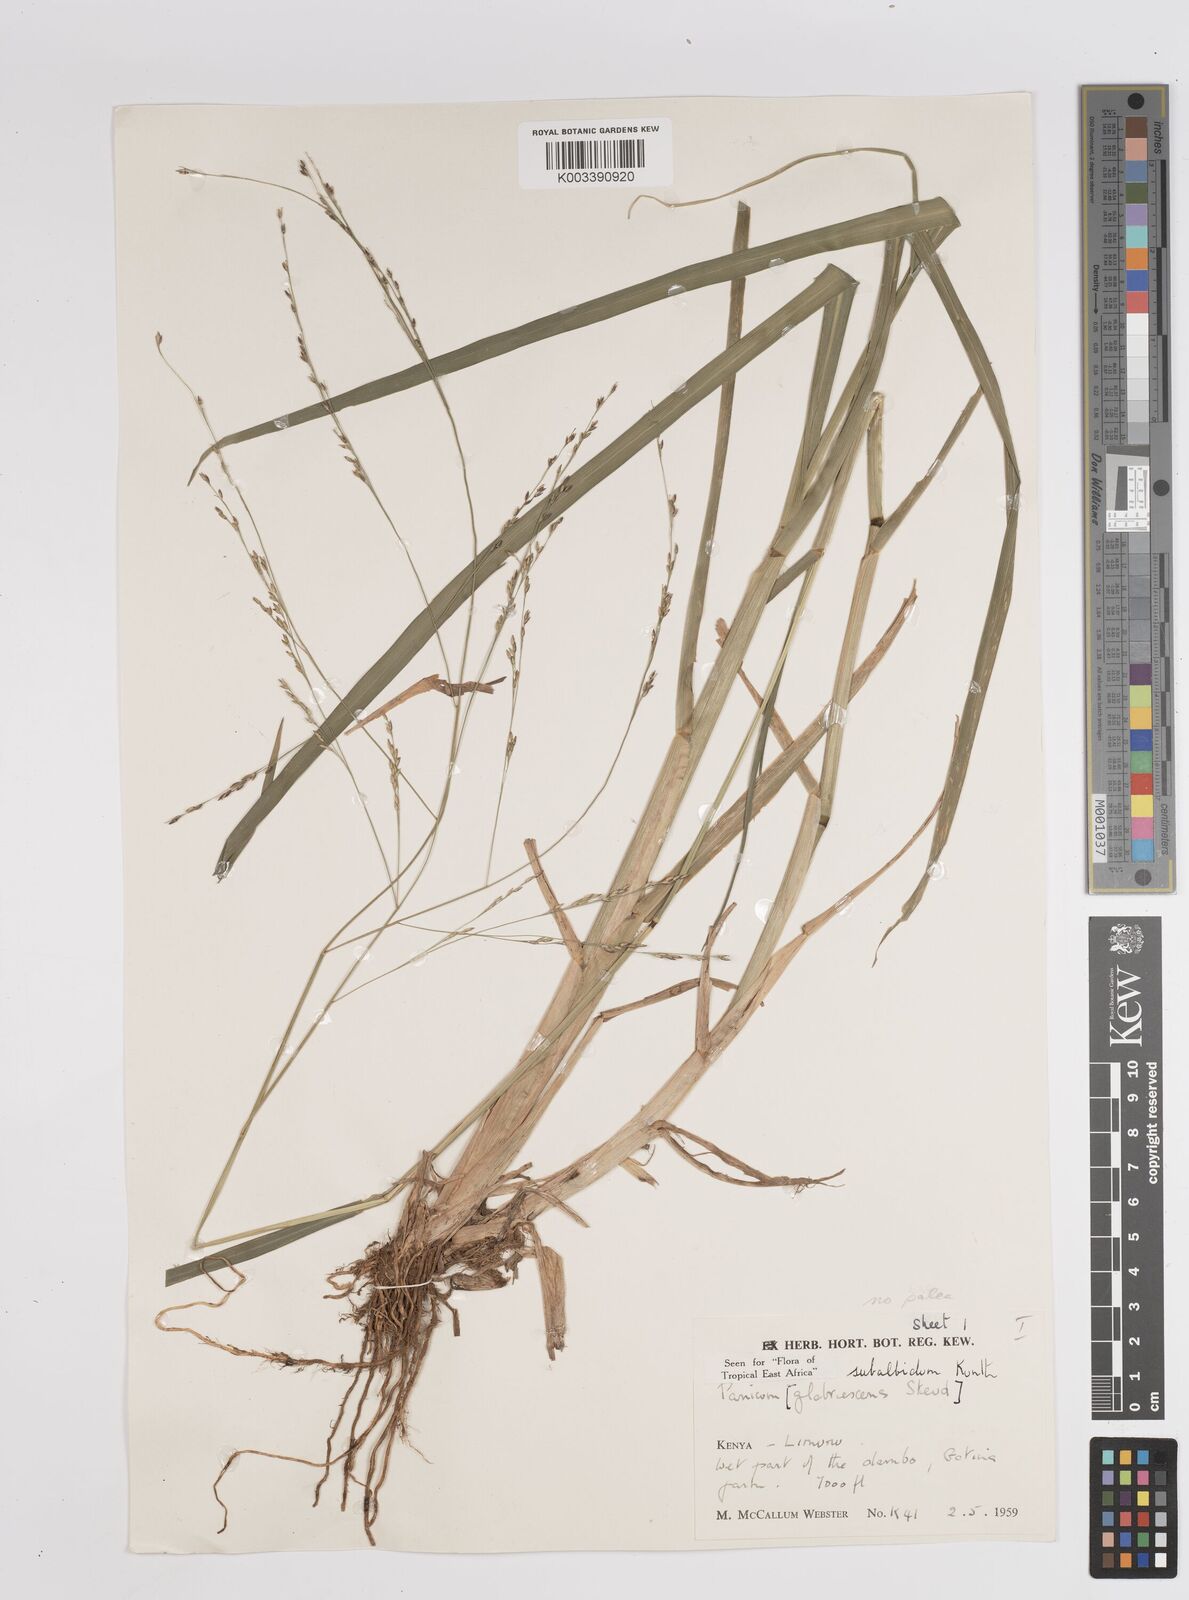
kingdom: Plantae
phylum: Tracheophyta
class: Liliopsida
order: Poales
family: Poaceae
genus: Panicum
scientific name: Panicum subalbidum
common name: Elbow buffalo grass
